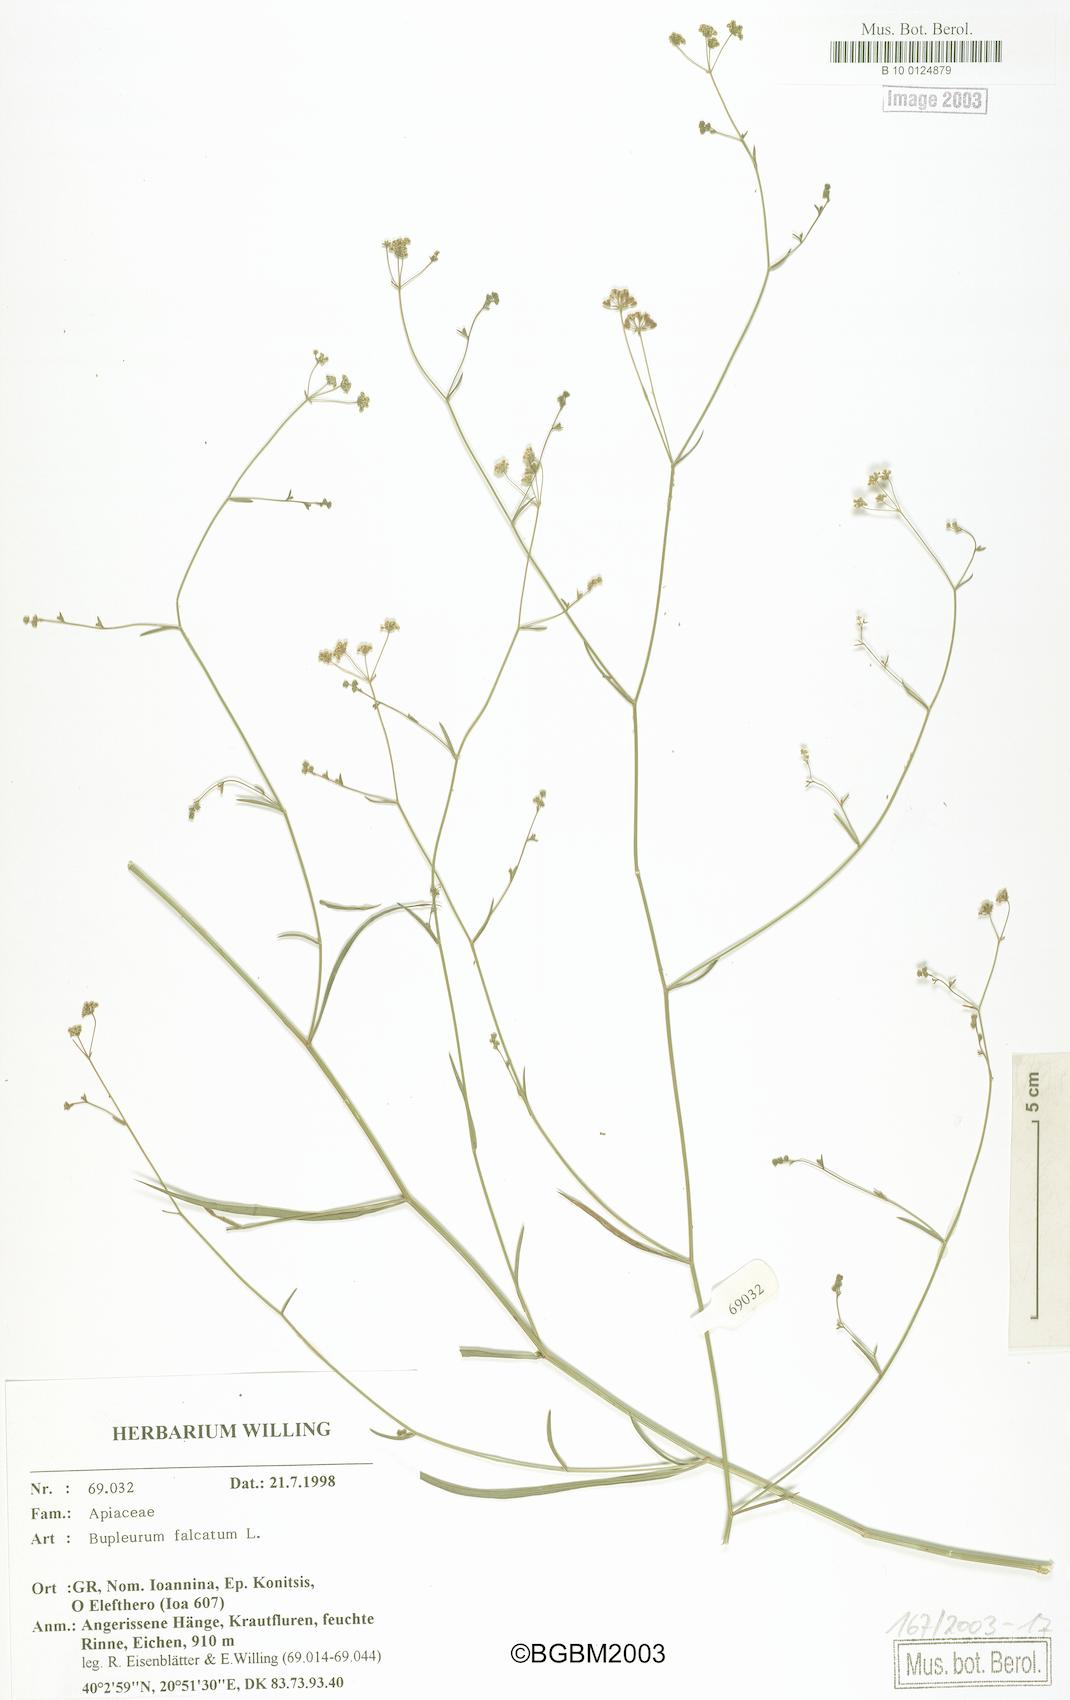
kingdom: Plantae
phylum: Tracheophyta
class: Magnoliopsida
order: Apiales
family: Apiaceae
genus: Bupleurum
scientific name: Bupleurum falcatum
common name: Sickle-leaved hare's-ear
